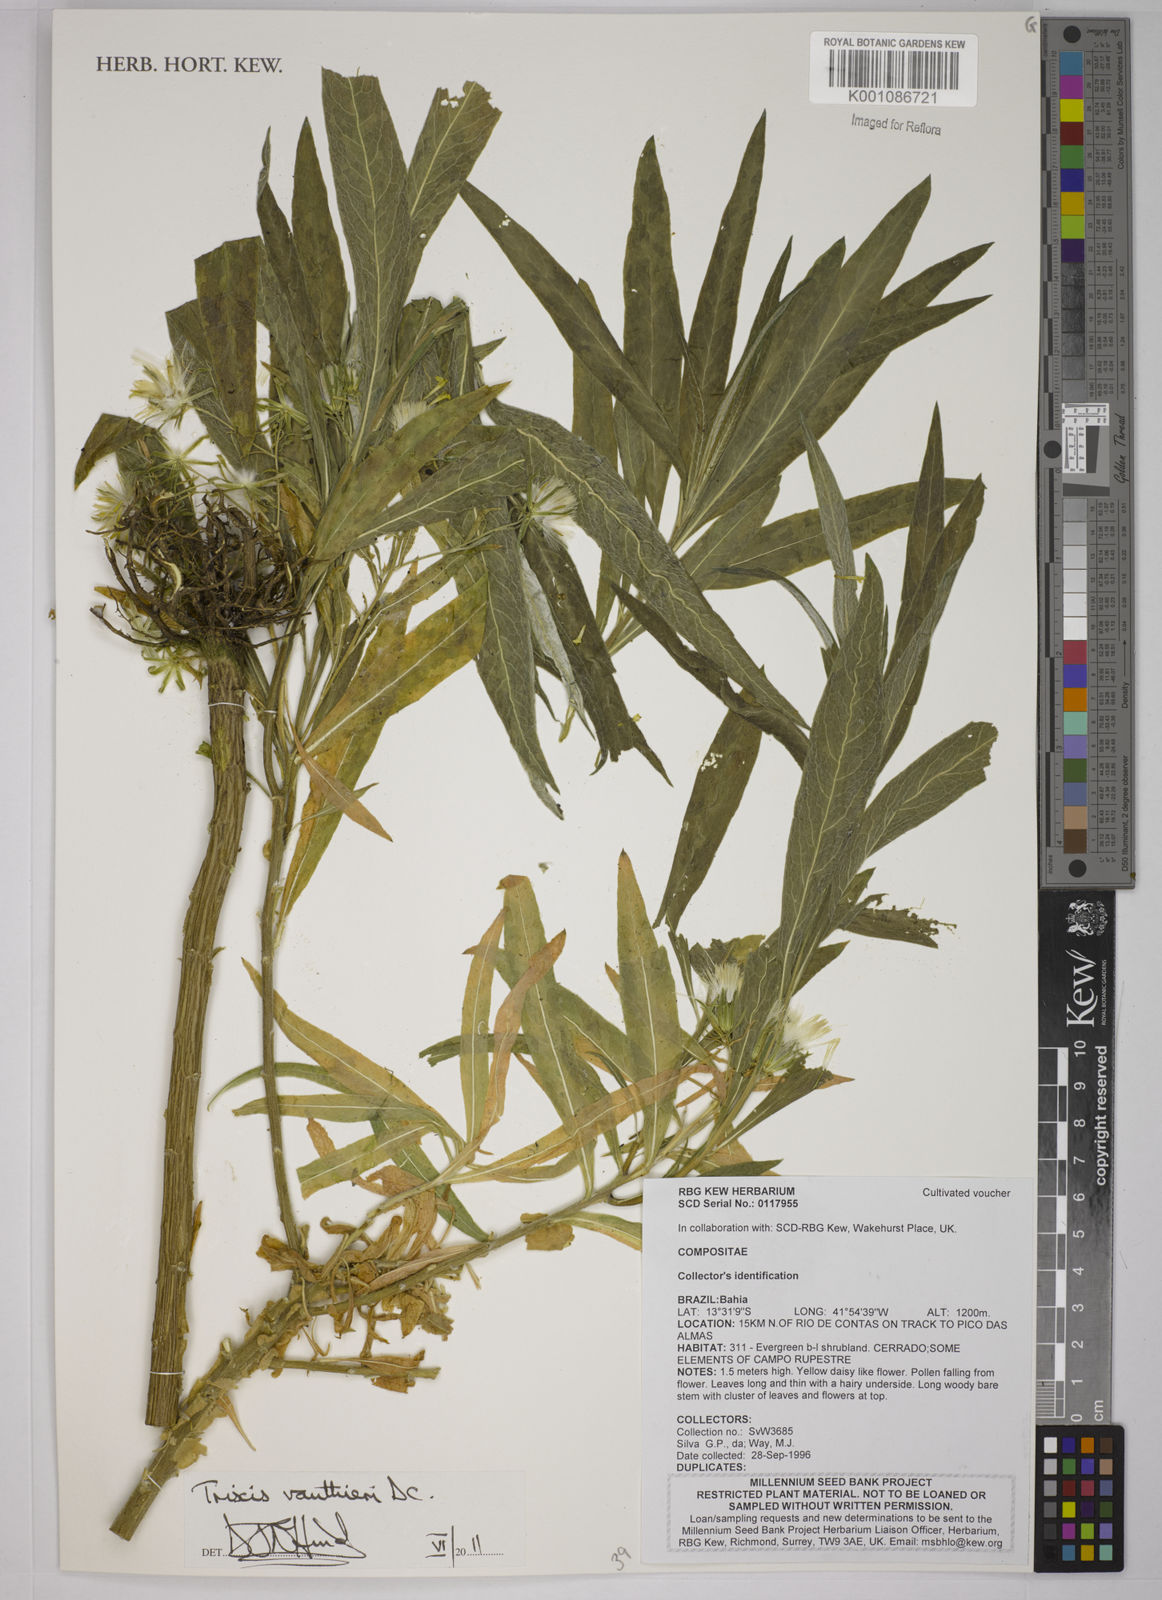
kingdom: Plantae
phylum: Tracheophyta
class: Magnoliopsida
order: Asterales
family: Asteraceae
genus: Trixis
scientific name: Trixis vauthieri
